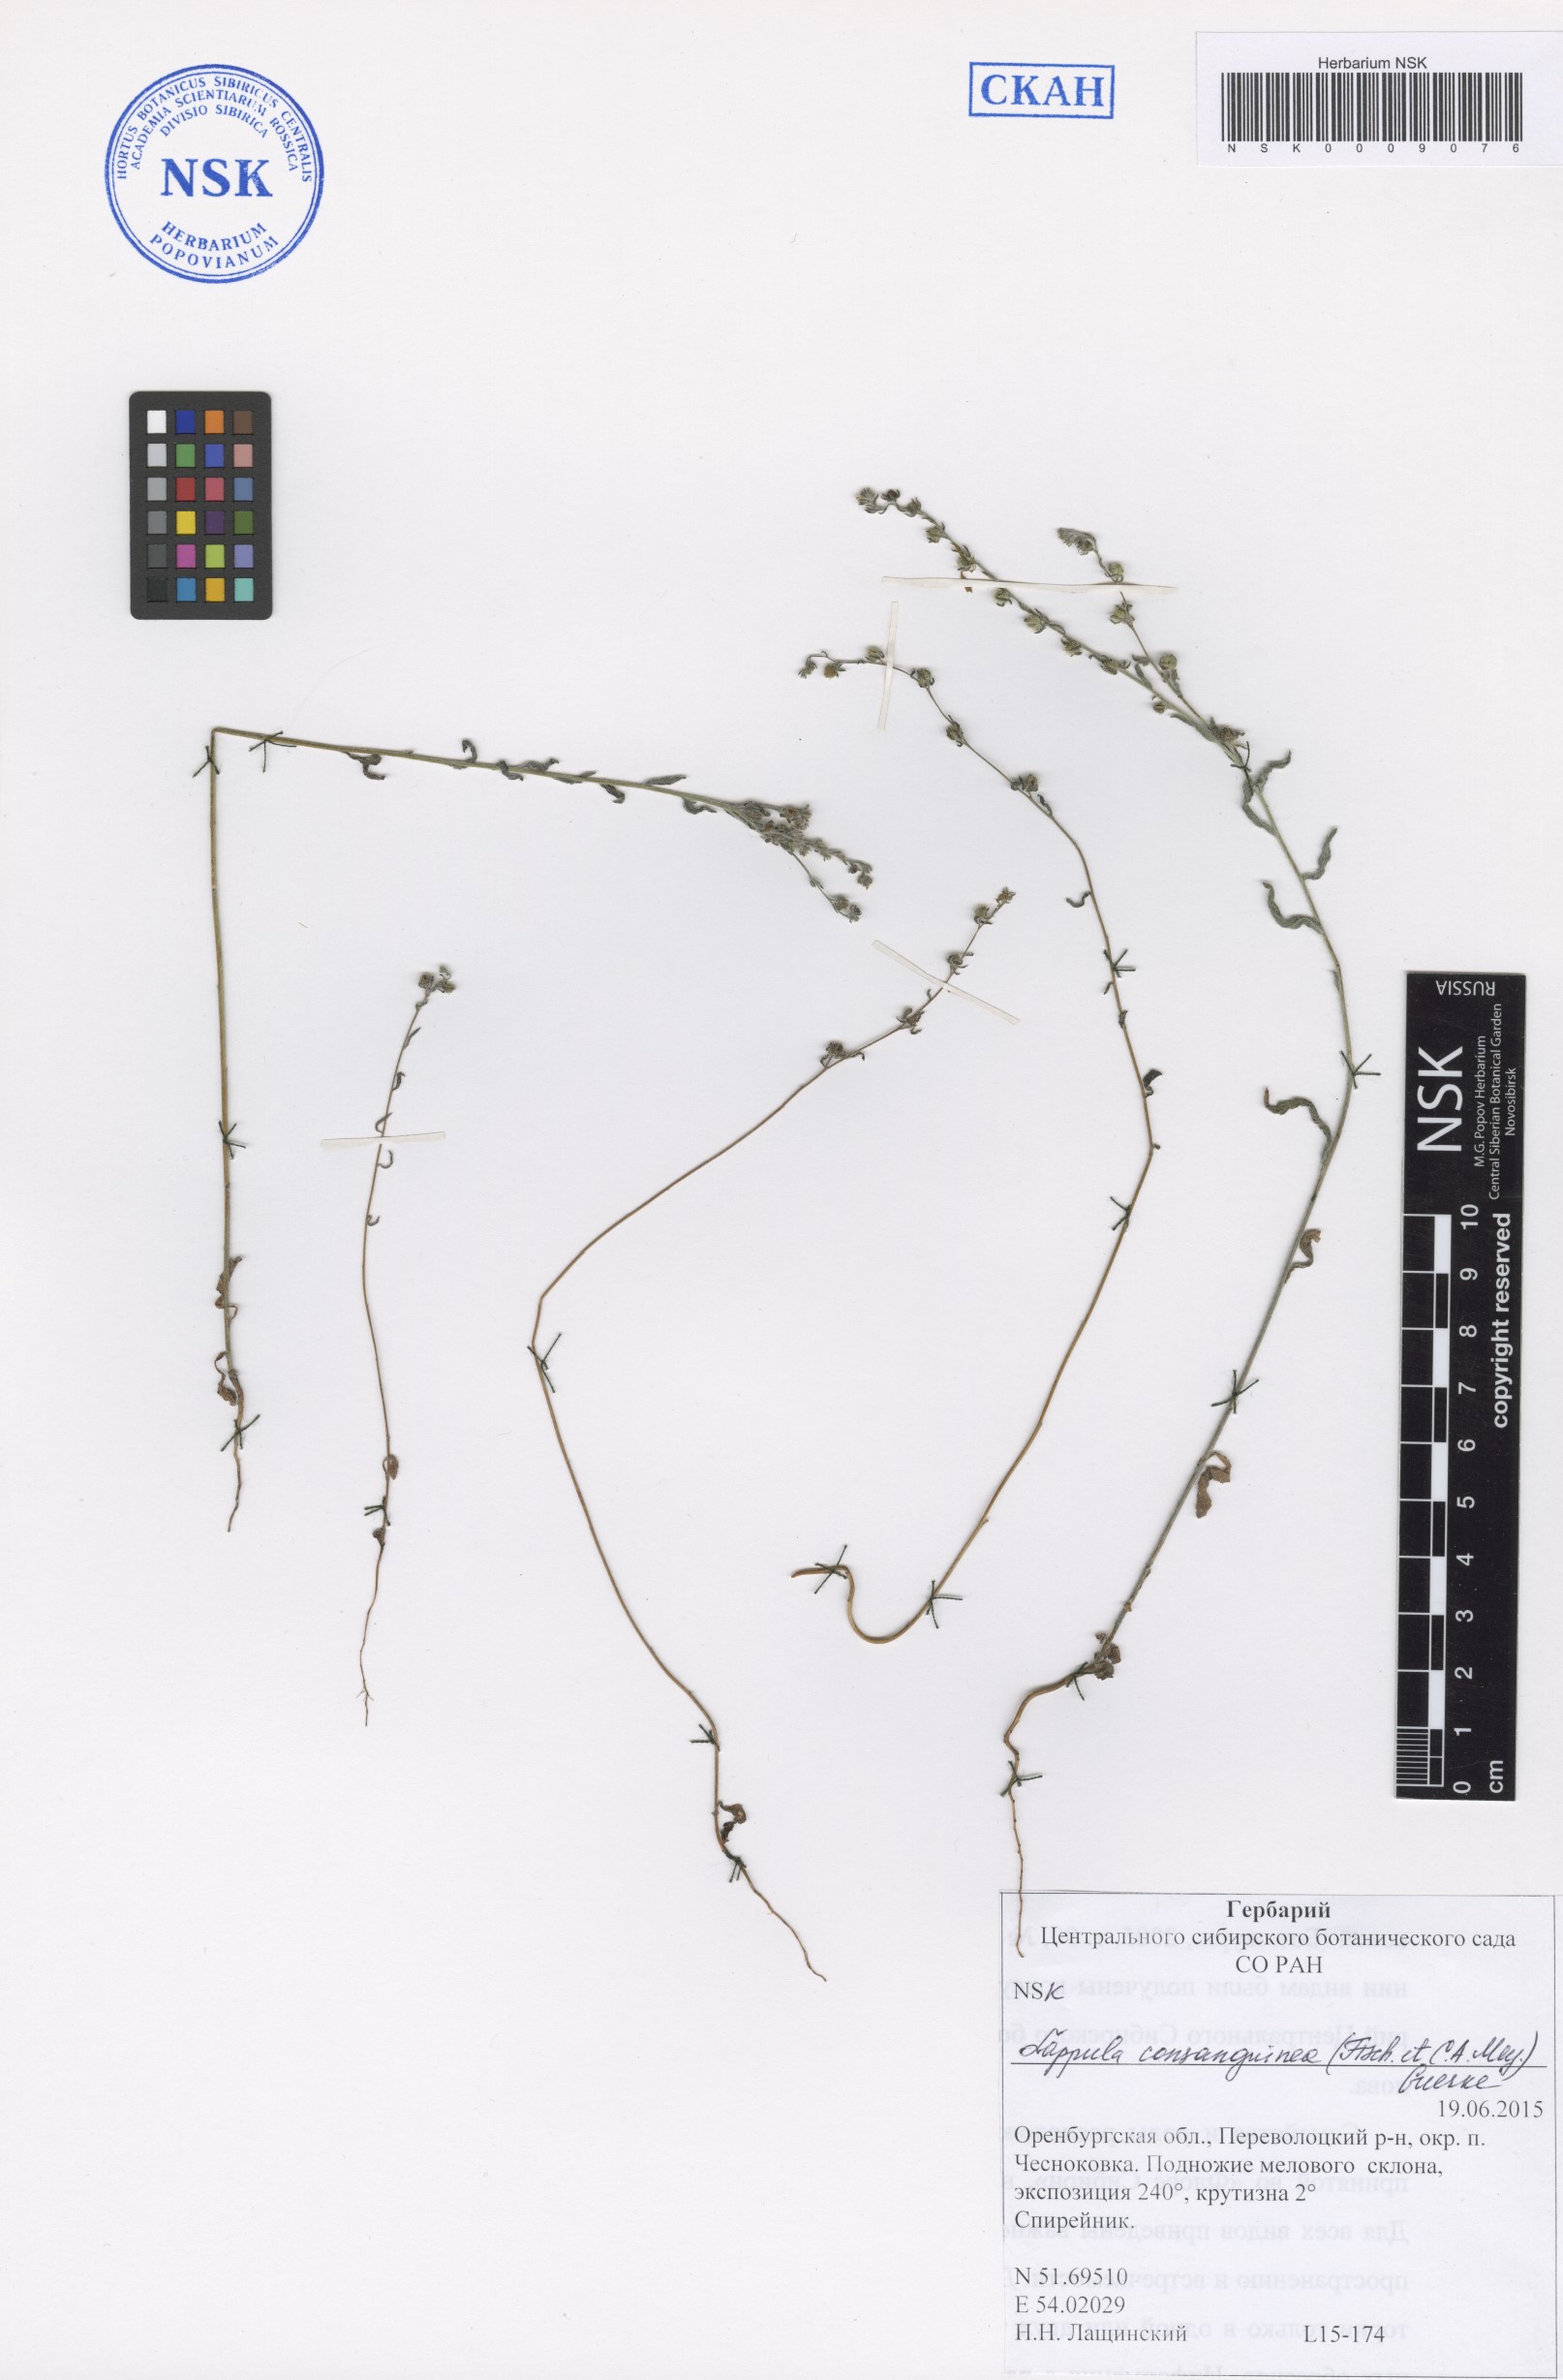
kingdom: Plantae
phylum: Tracheophyta
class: Magnoliopsida
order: Boraginales
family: Boraginaceae
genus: Lappula
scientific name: Lappula squarrosa
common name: European stickseed
